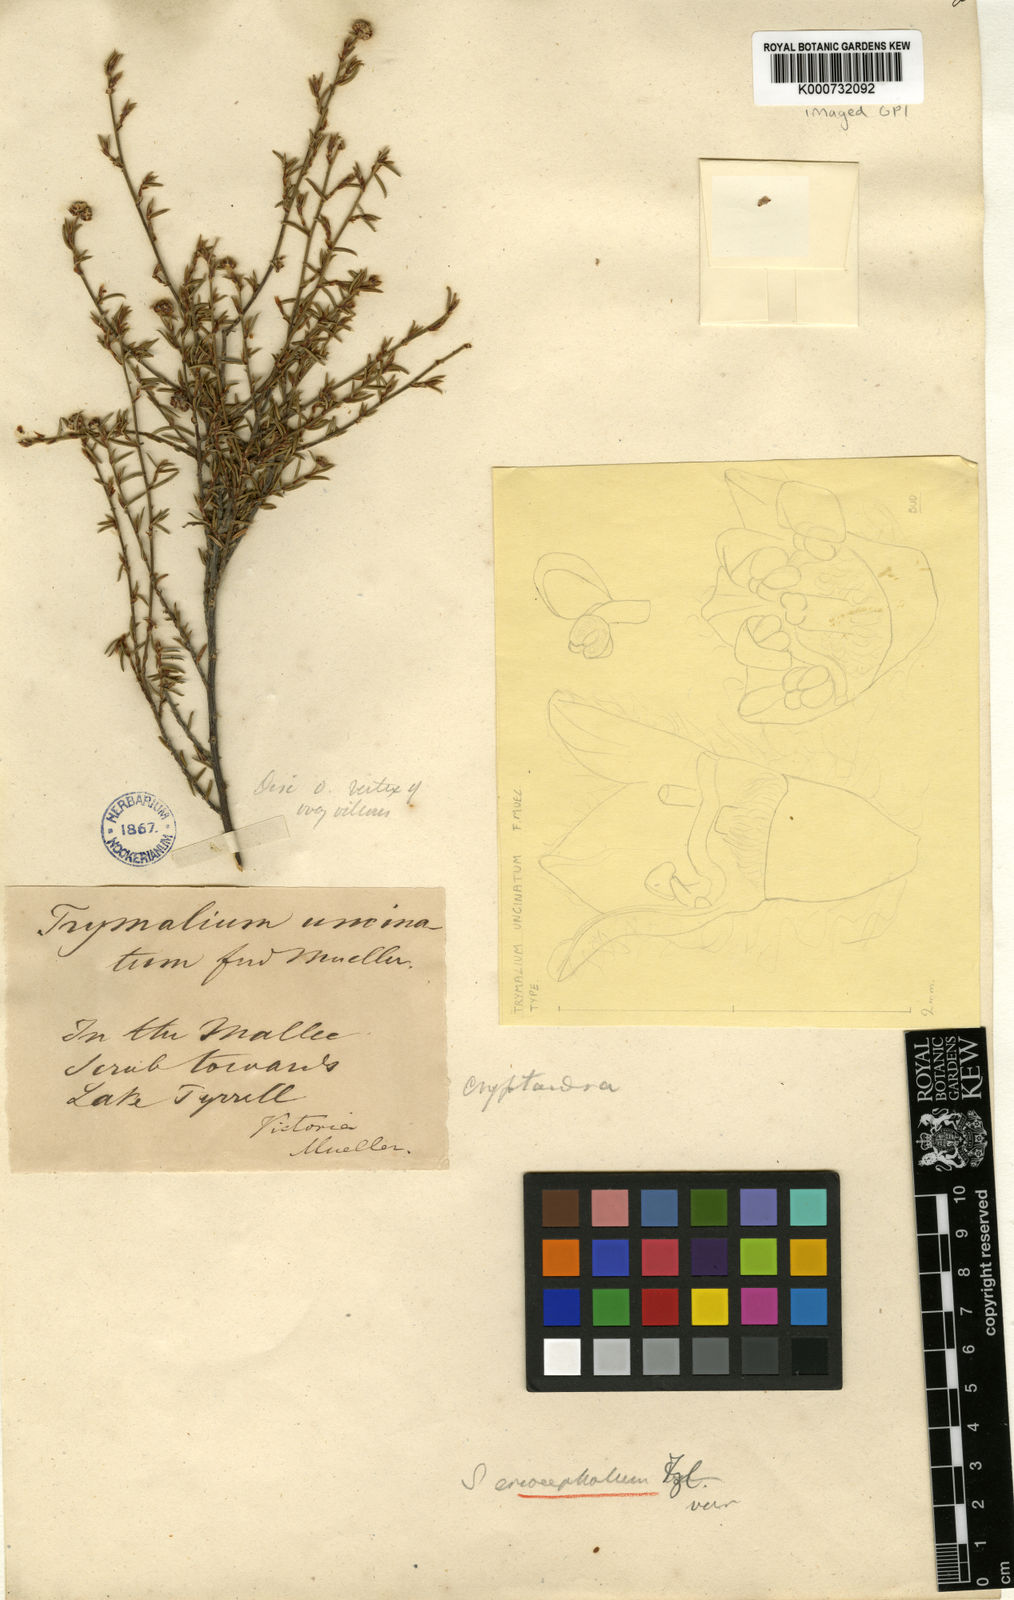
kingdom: Plantae
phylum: Tracheophyta
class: Magnoliopsida
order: Rosales
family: Rhamnaceae
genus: Spyridium
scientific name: Spyridium eriocephalum
